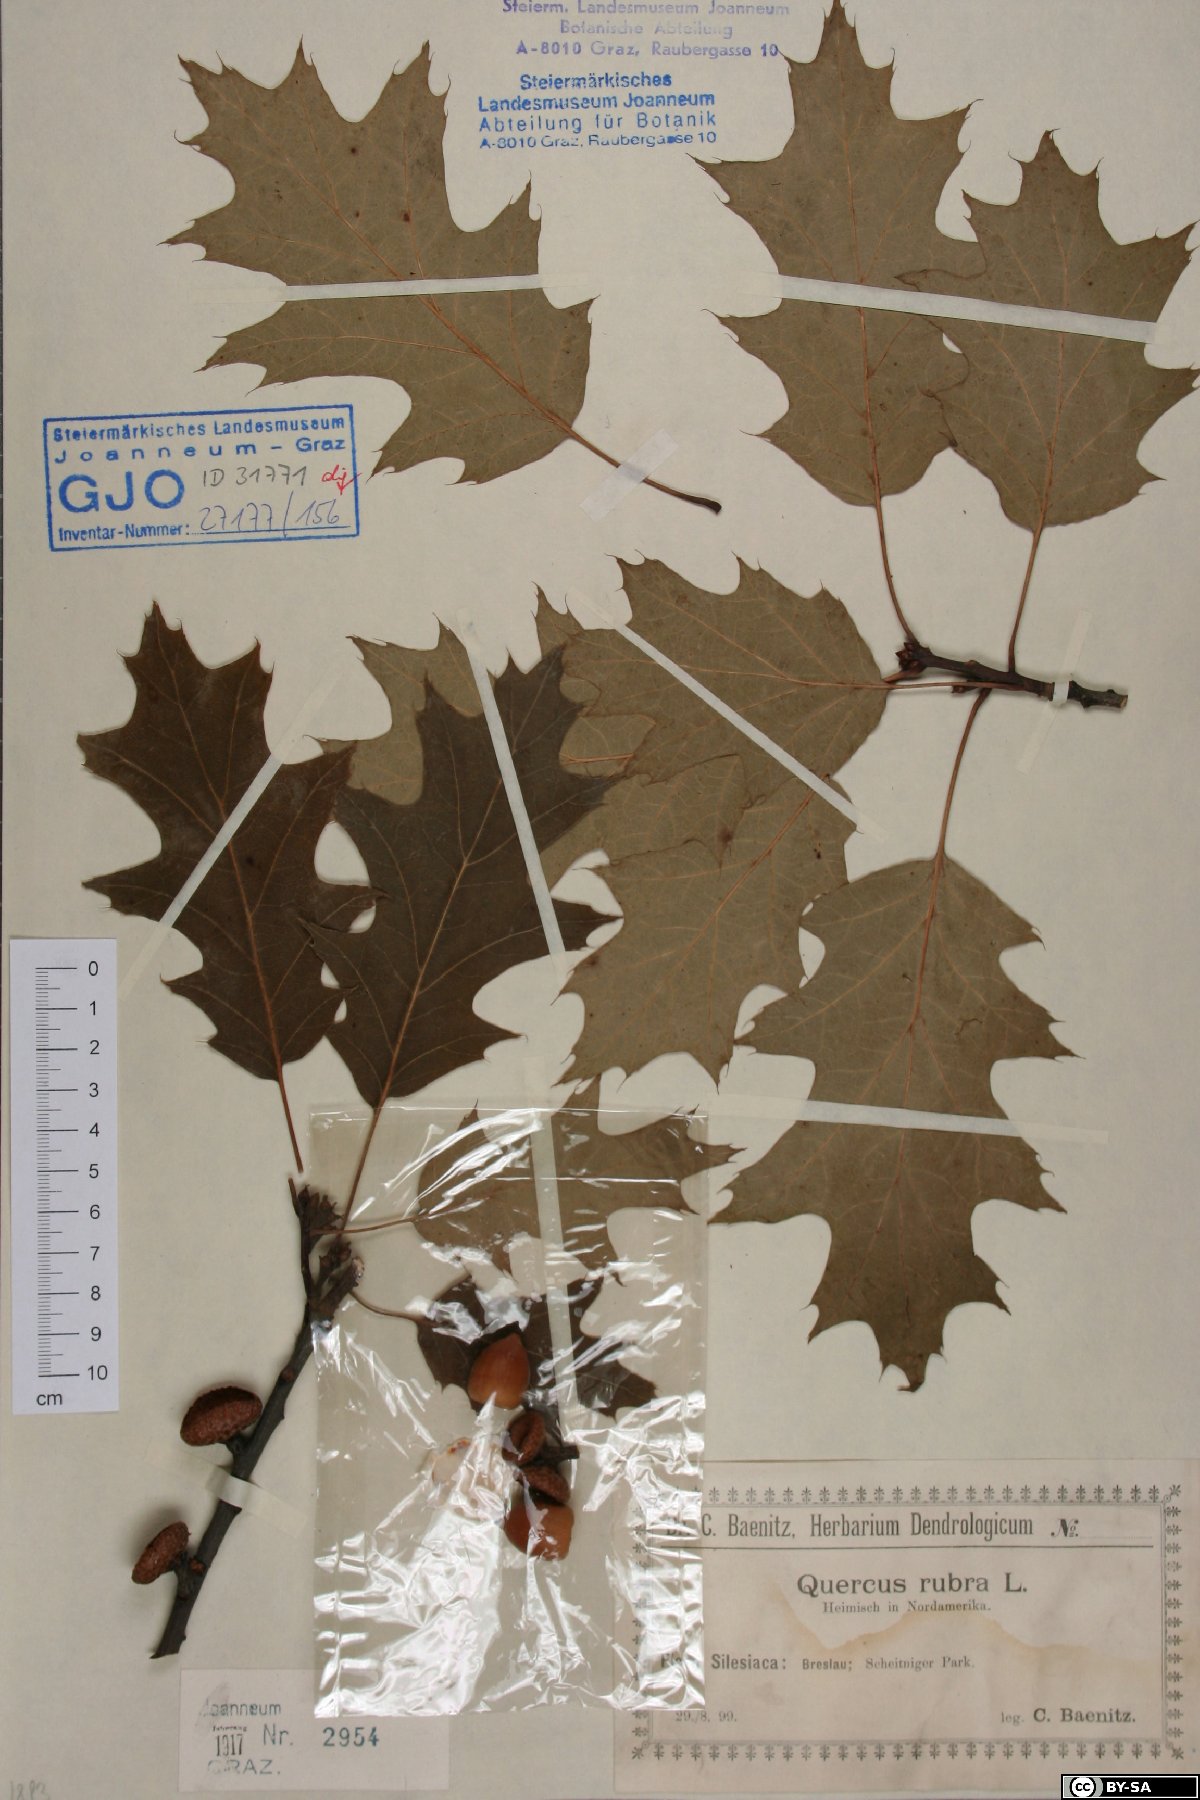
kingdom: Plantae
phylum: Tracheophyta
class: Magnoliopsida
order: Fagales
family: Fagaceae
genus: Quercus
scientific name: Quercus rubra
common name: Red oak
